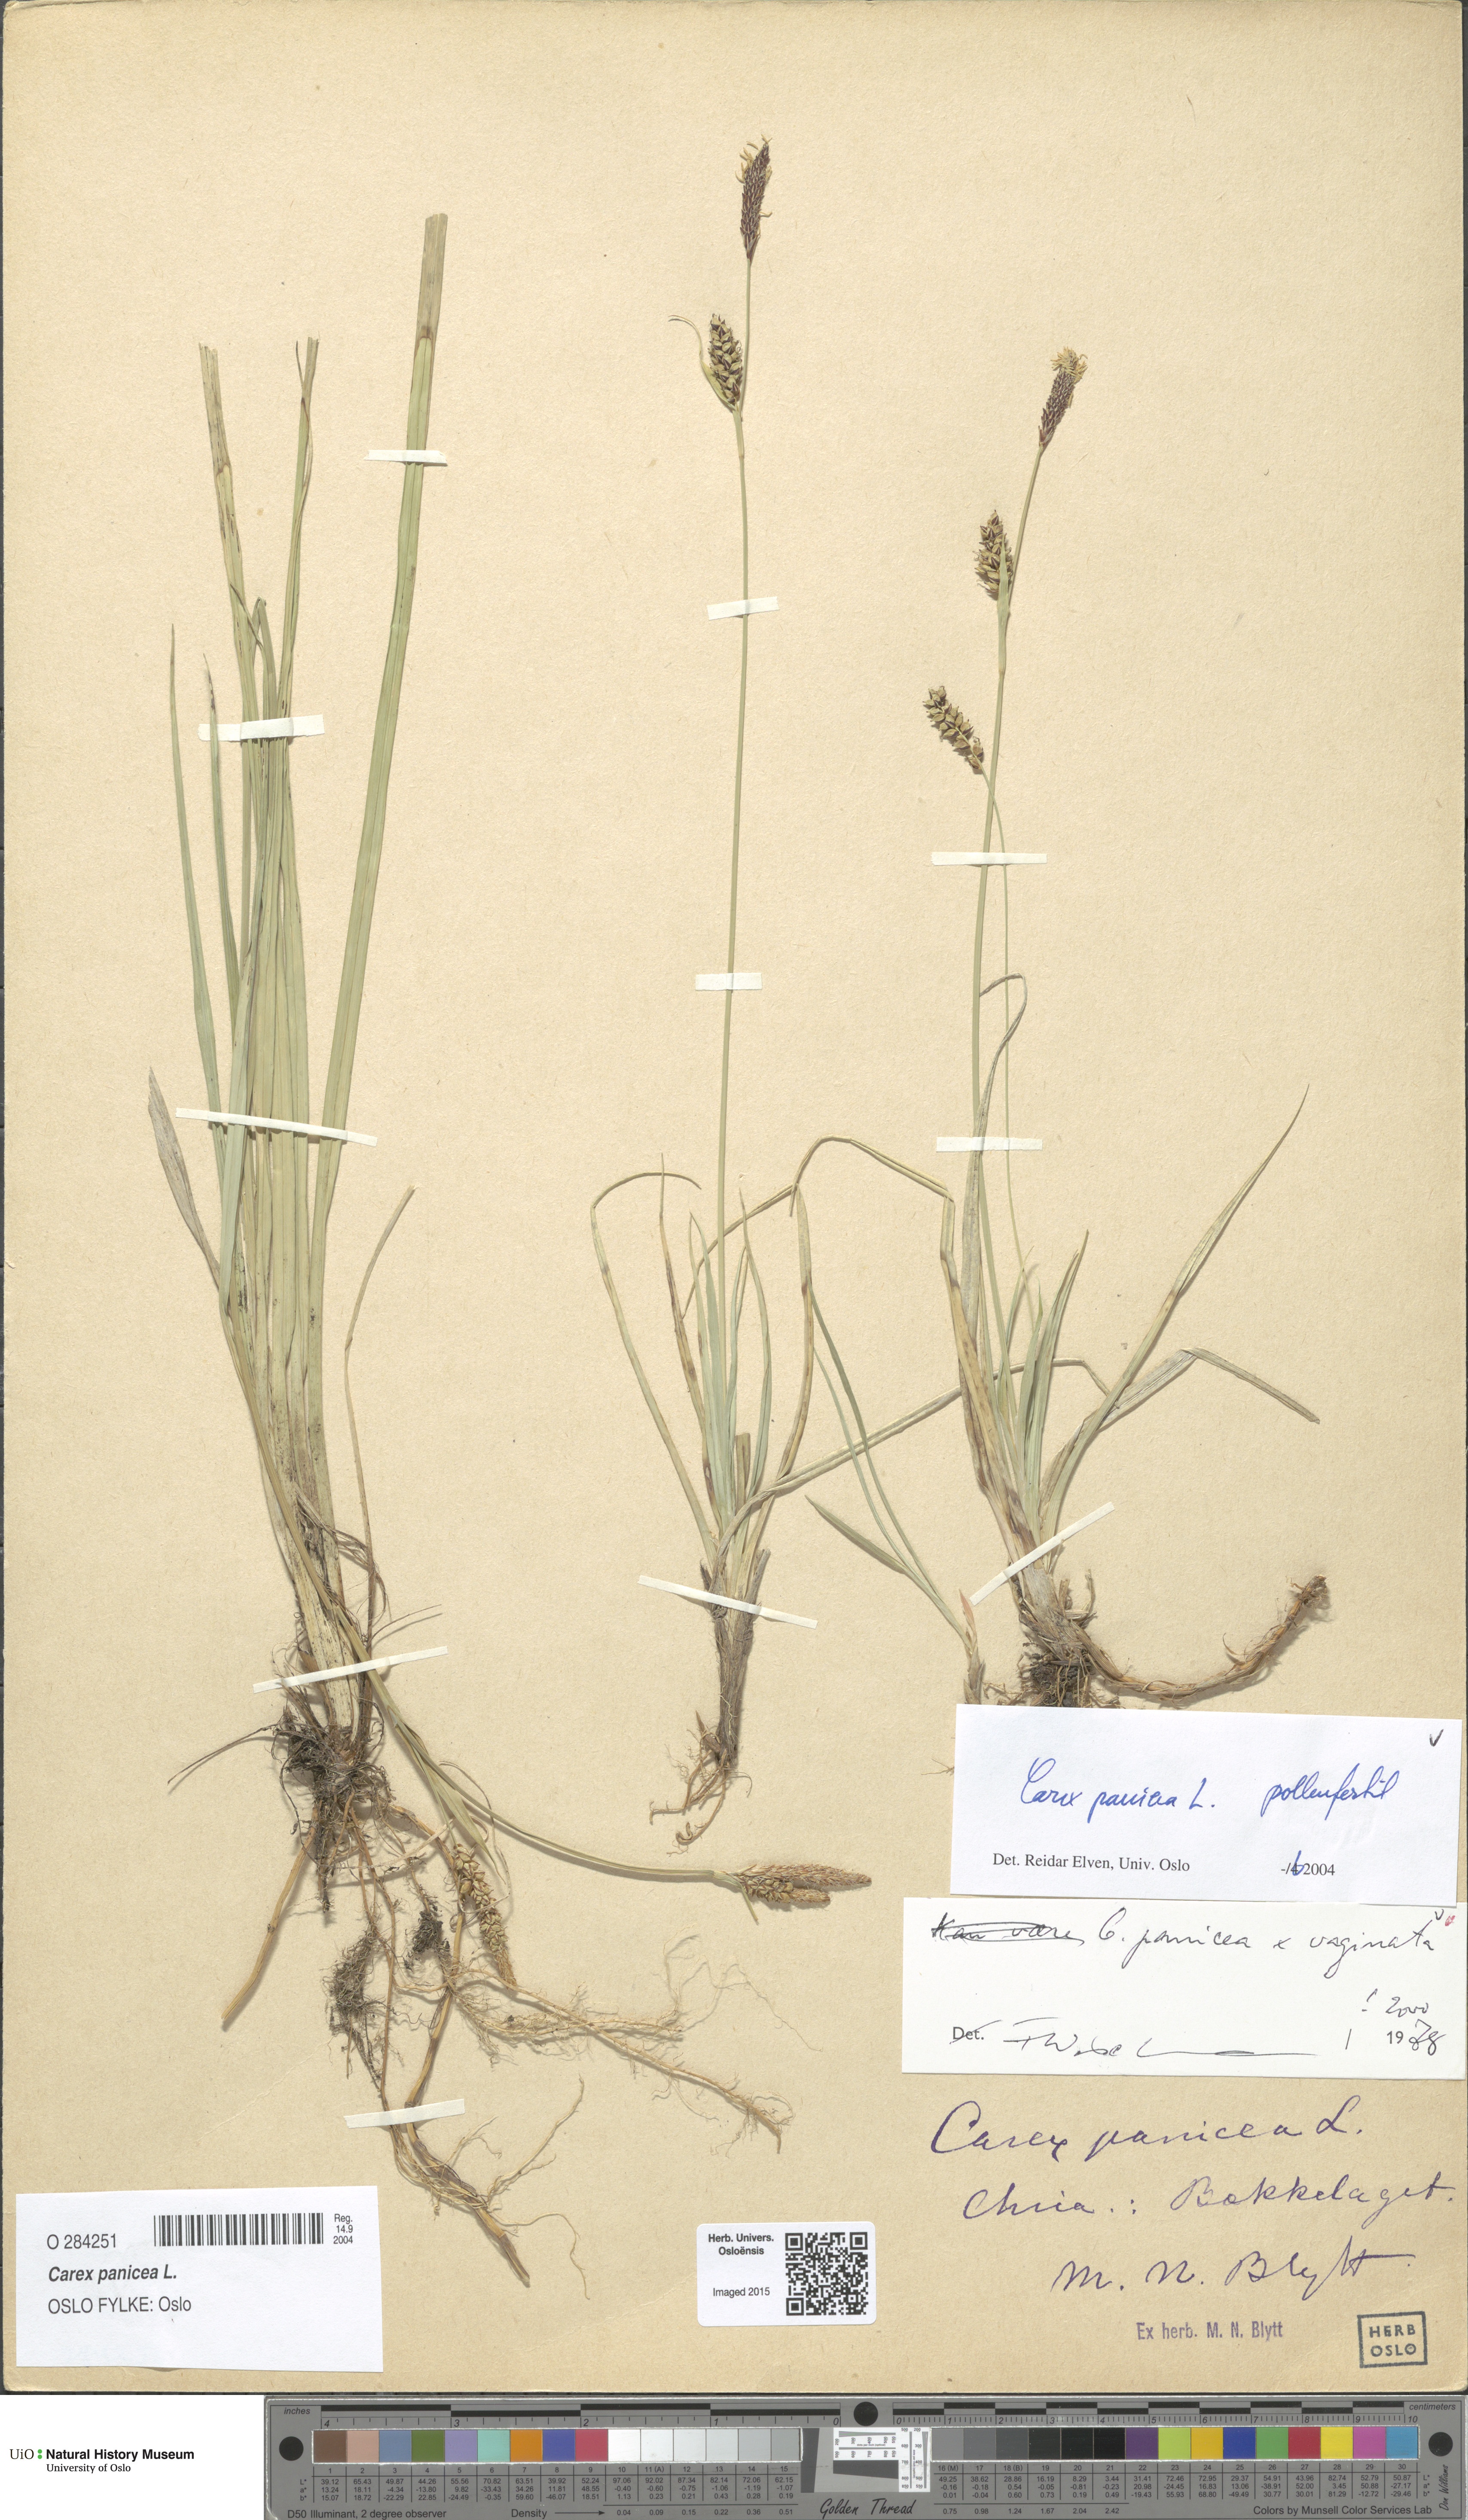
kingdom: Plantae
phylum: Tracheophyta
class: Liliopsida
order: Poales
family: Cyperaceae
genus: Carex
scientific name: Carex panicea
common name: Carnation sedge
